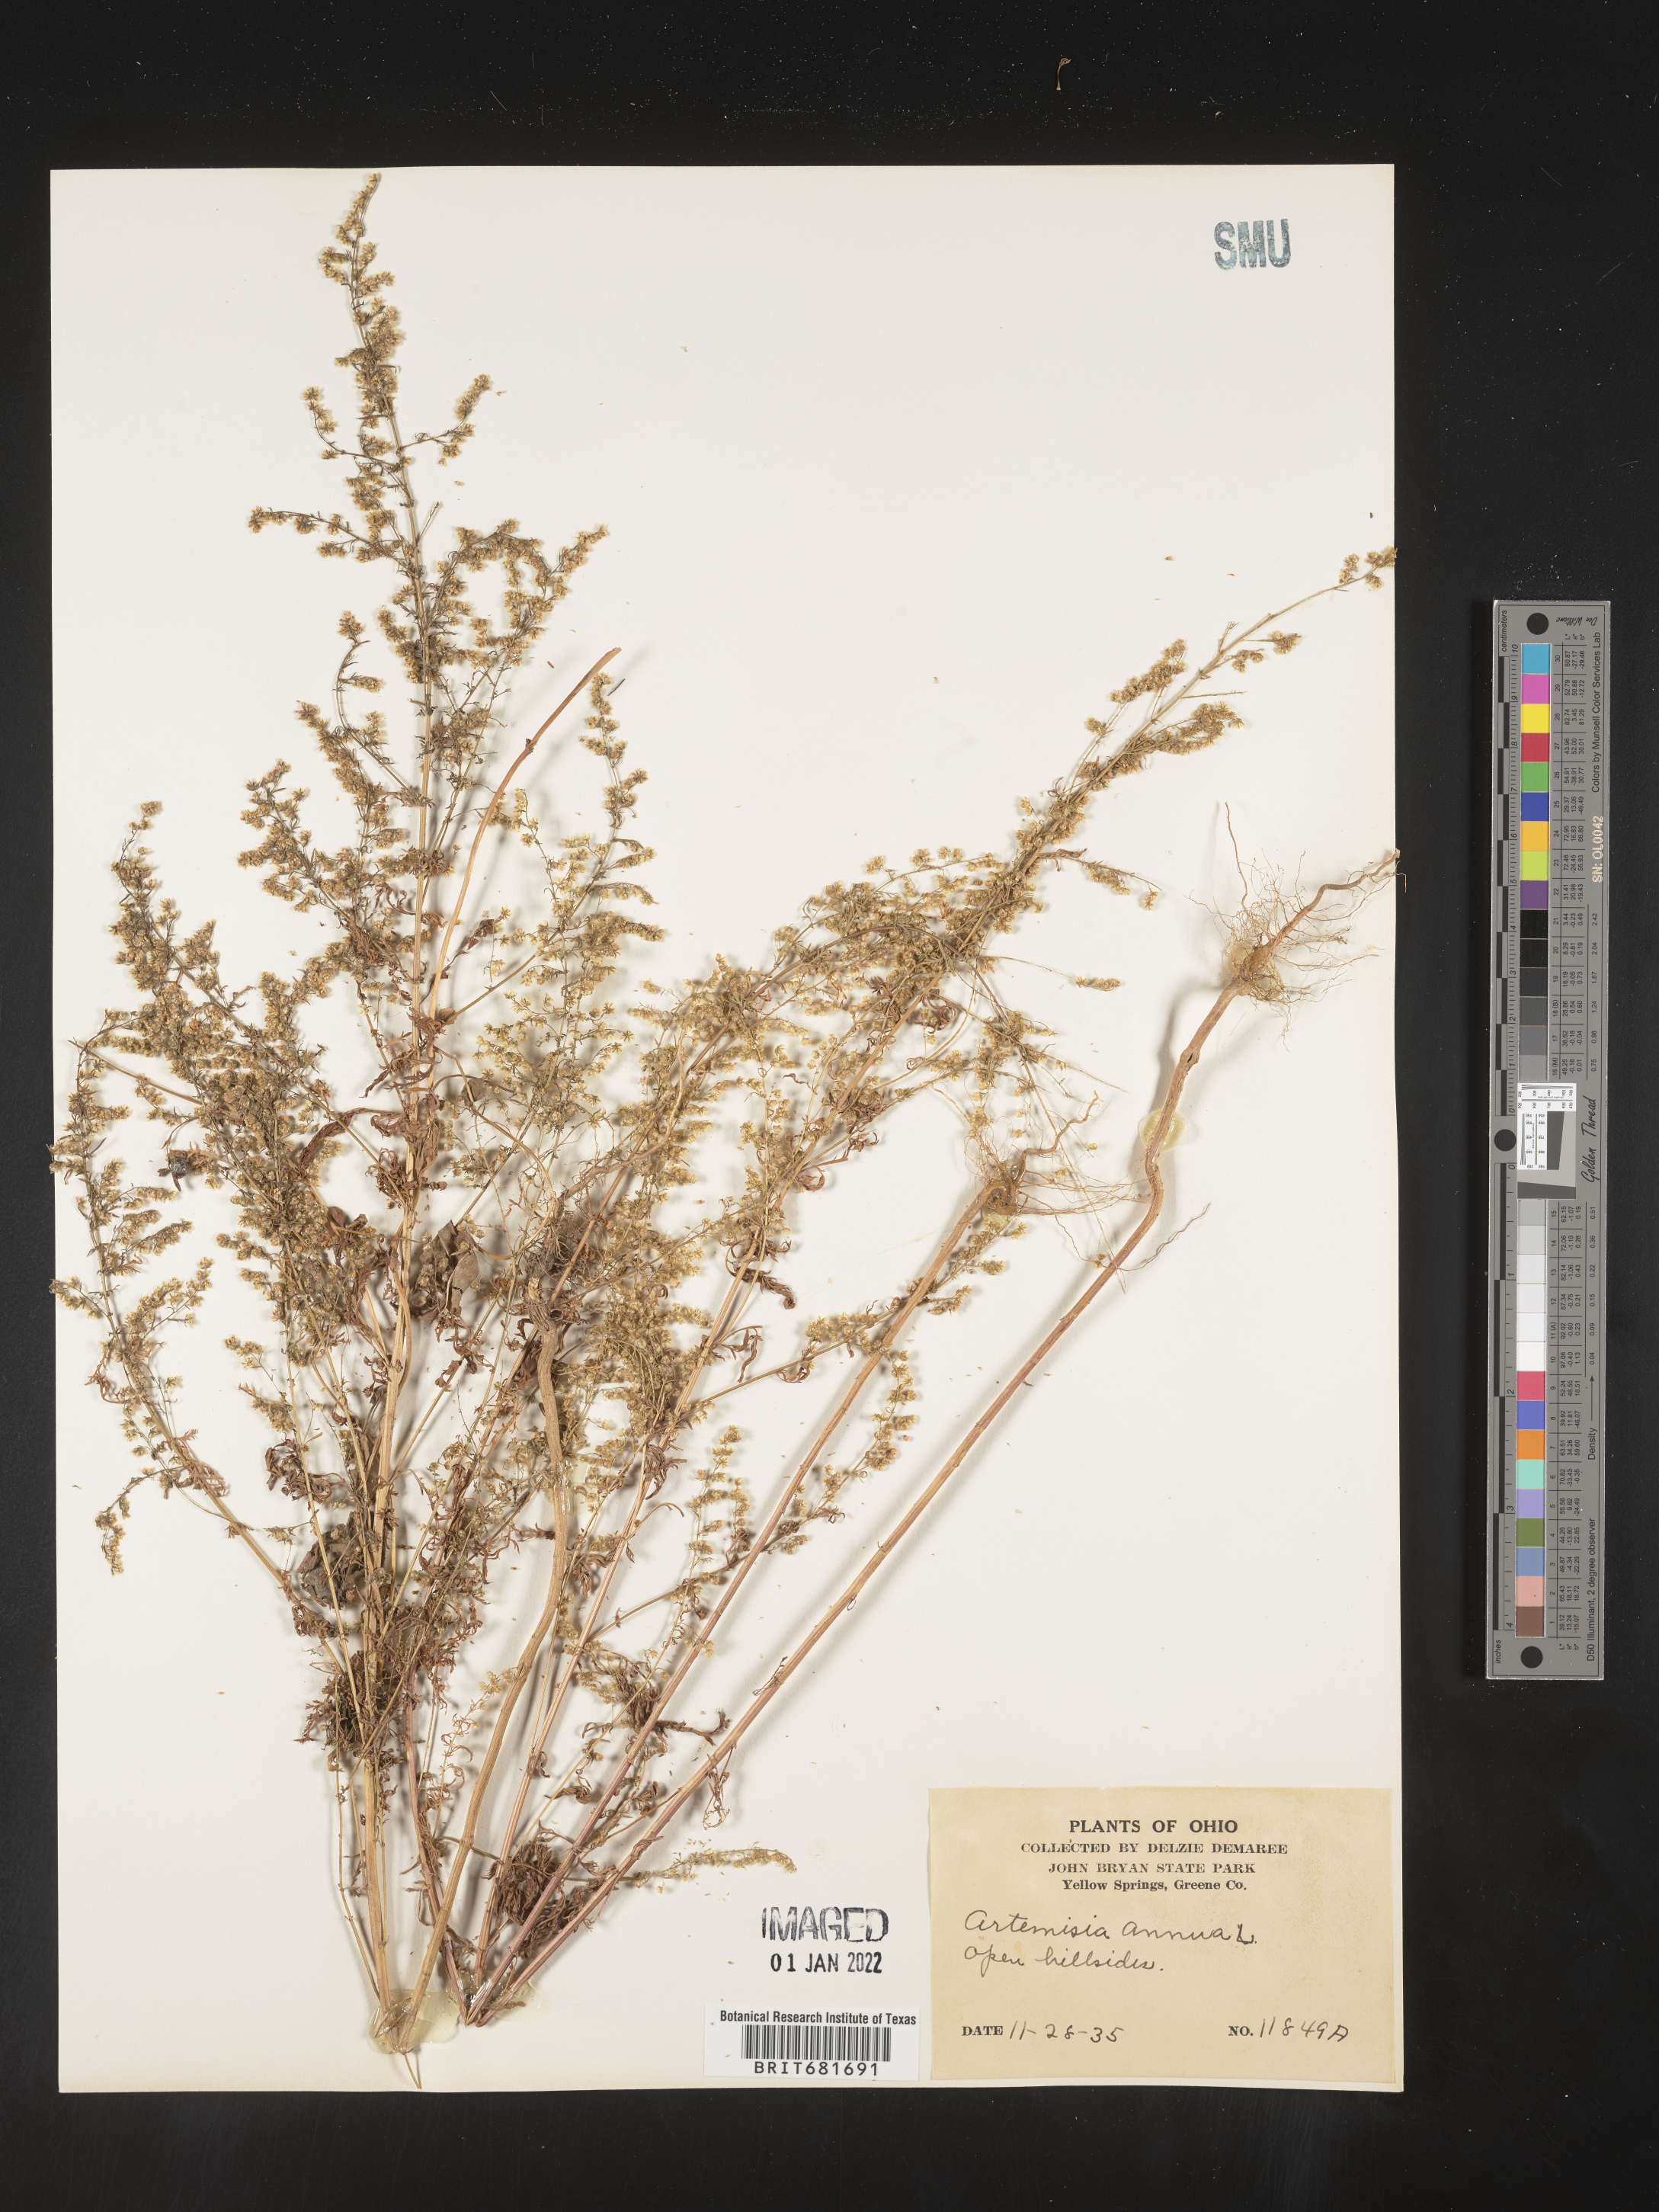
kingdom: Plantae
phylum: Tracheophyta
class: Magnoliopsida
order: Asterales
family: Asteraceae
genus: Artemisia
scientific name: Artemisia annua
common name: Sweet sagewort
